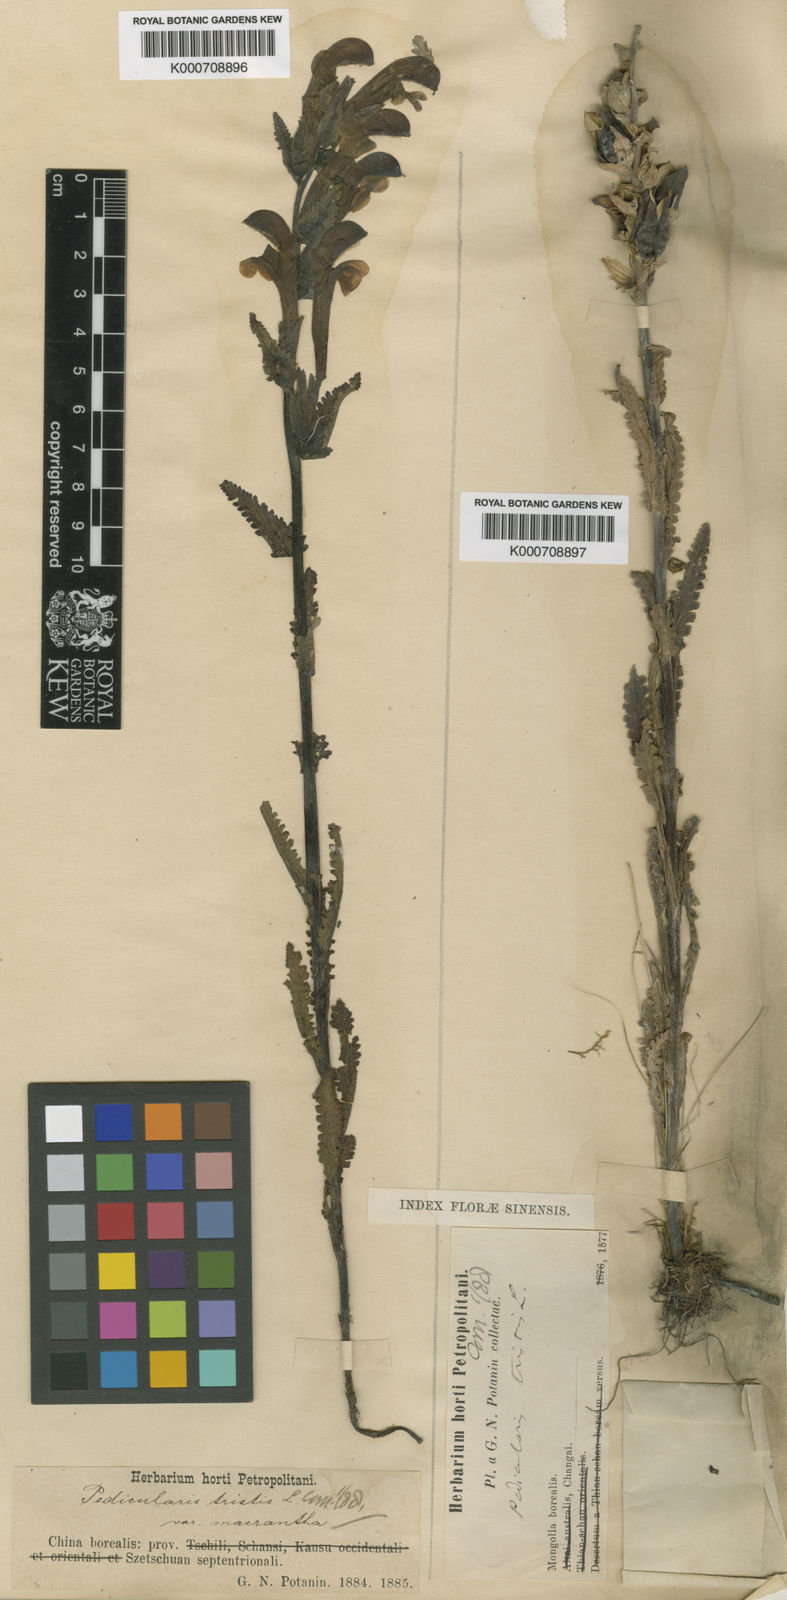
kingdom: Plantae
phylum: Tracheophyta
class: Magnoliopsida
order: Lamiales
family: Orobanchaceae
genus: Pedicularis
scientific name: Pedicularis tristis
